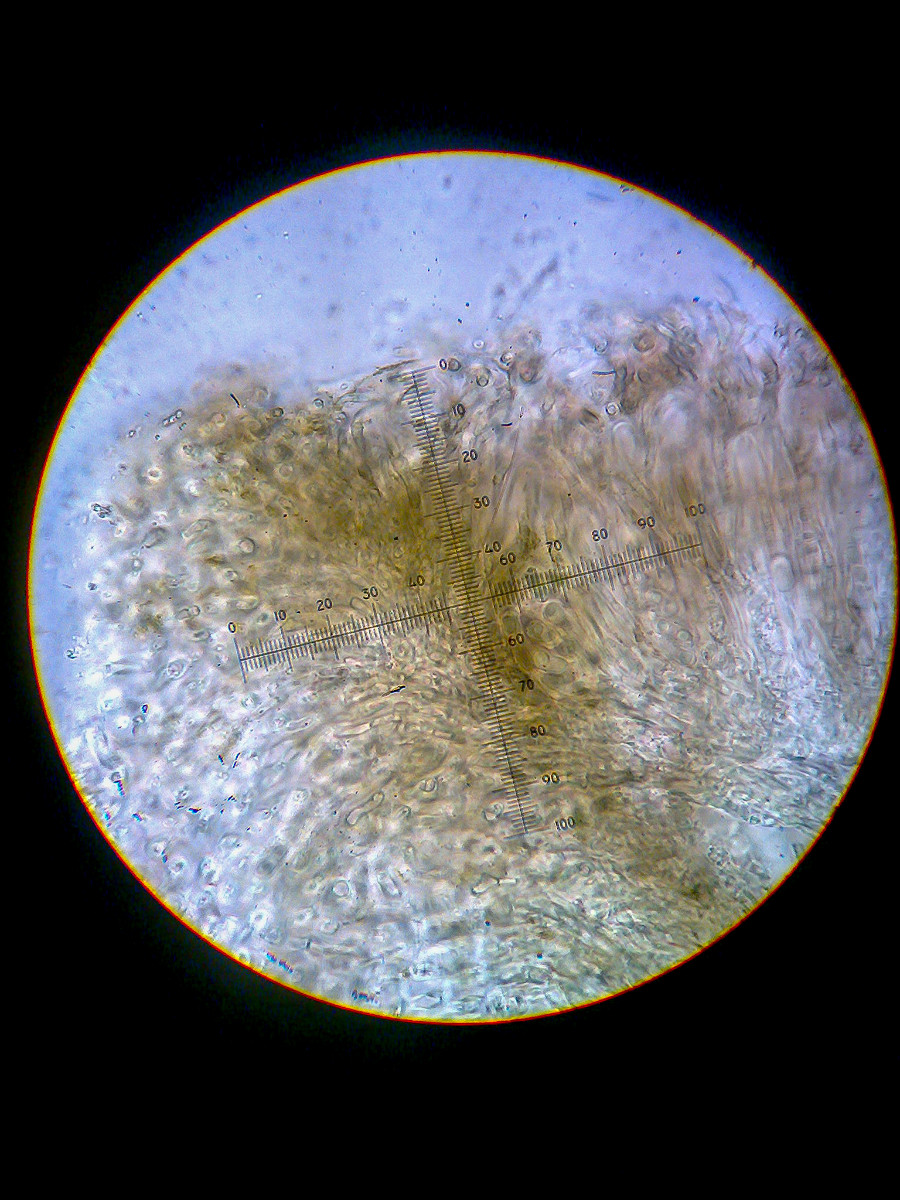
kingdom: Fungi
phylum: Ascomycota
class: Lecanoromycetes
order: Umbilicariales
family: Fuscideaceae
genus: Fuscidea
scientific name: Fuscidea lightfootii
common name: bøge-fuscidea
